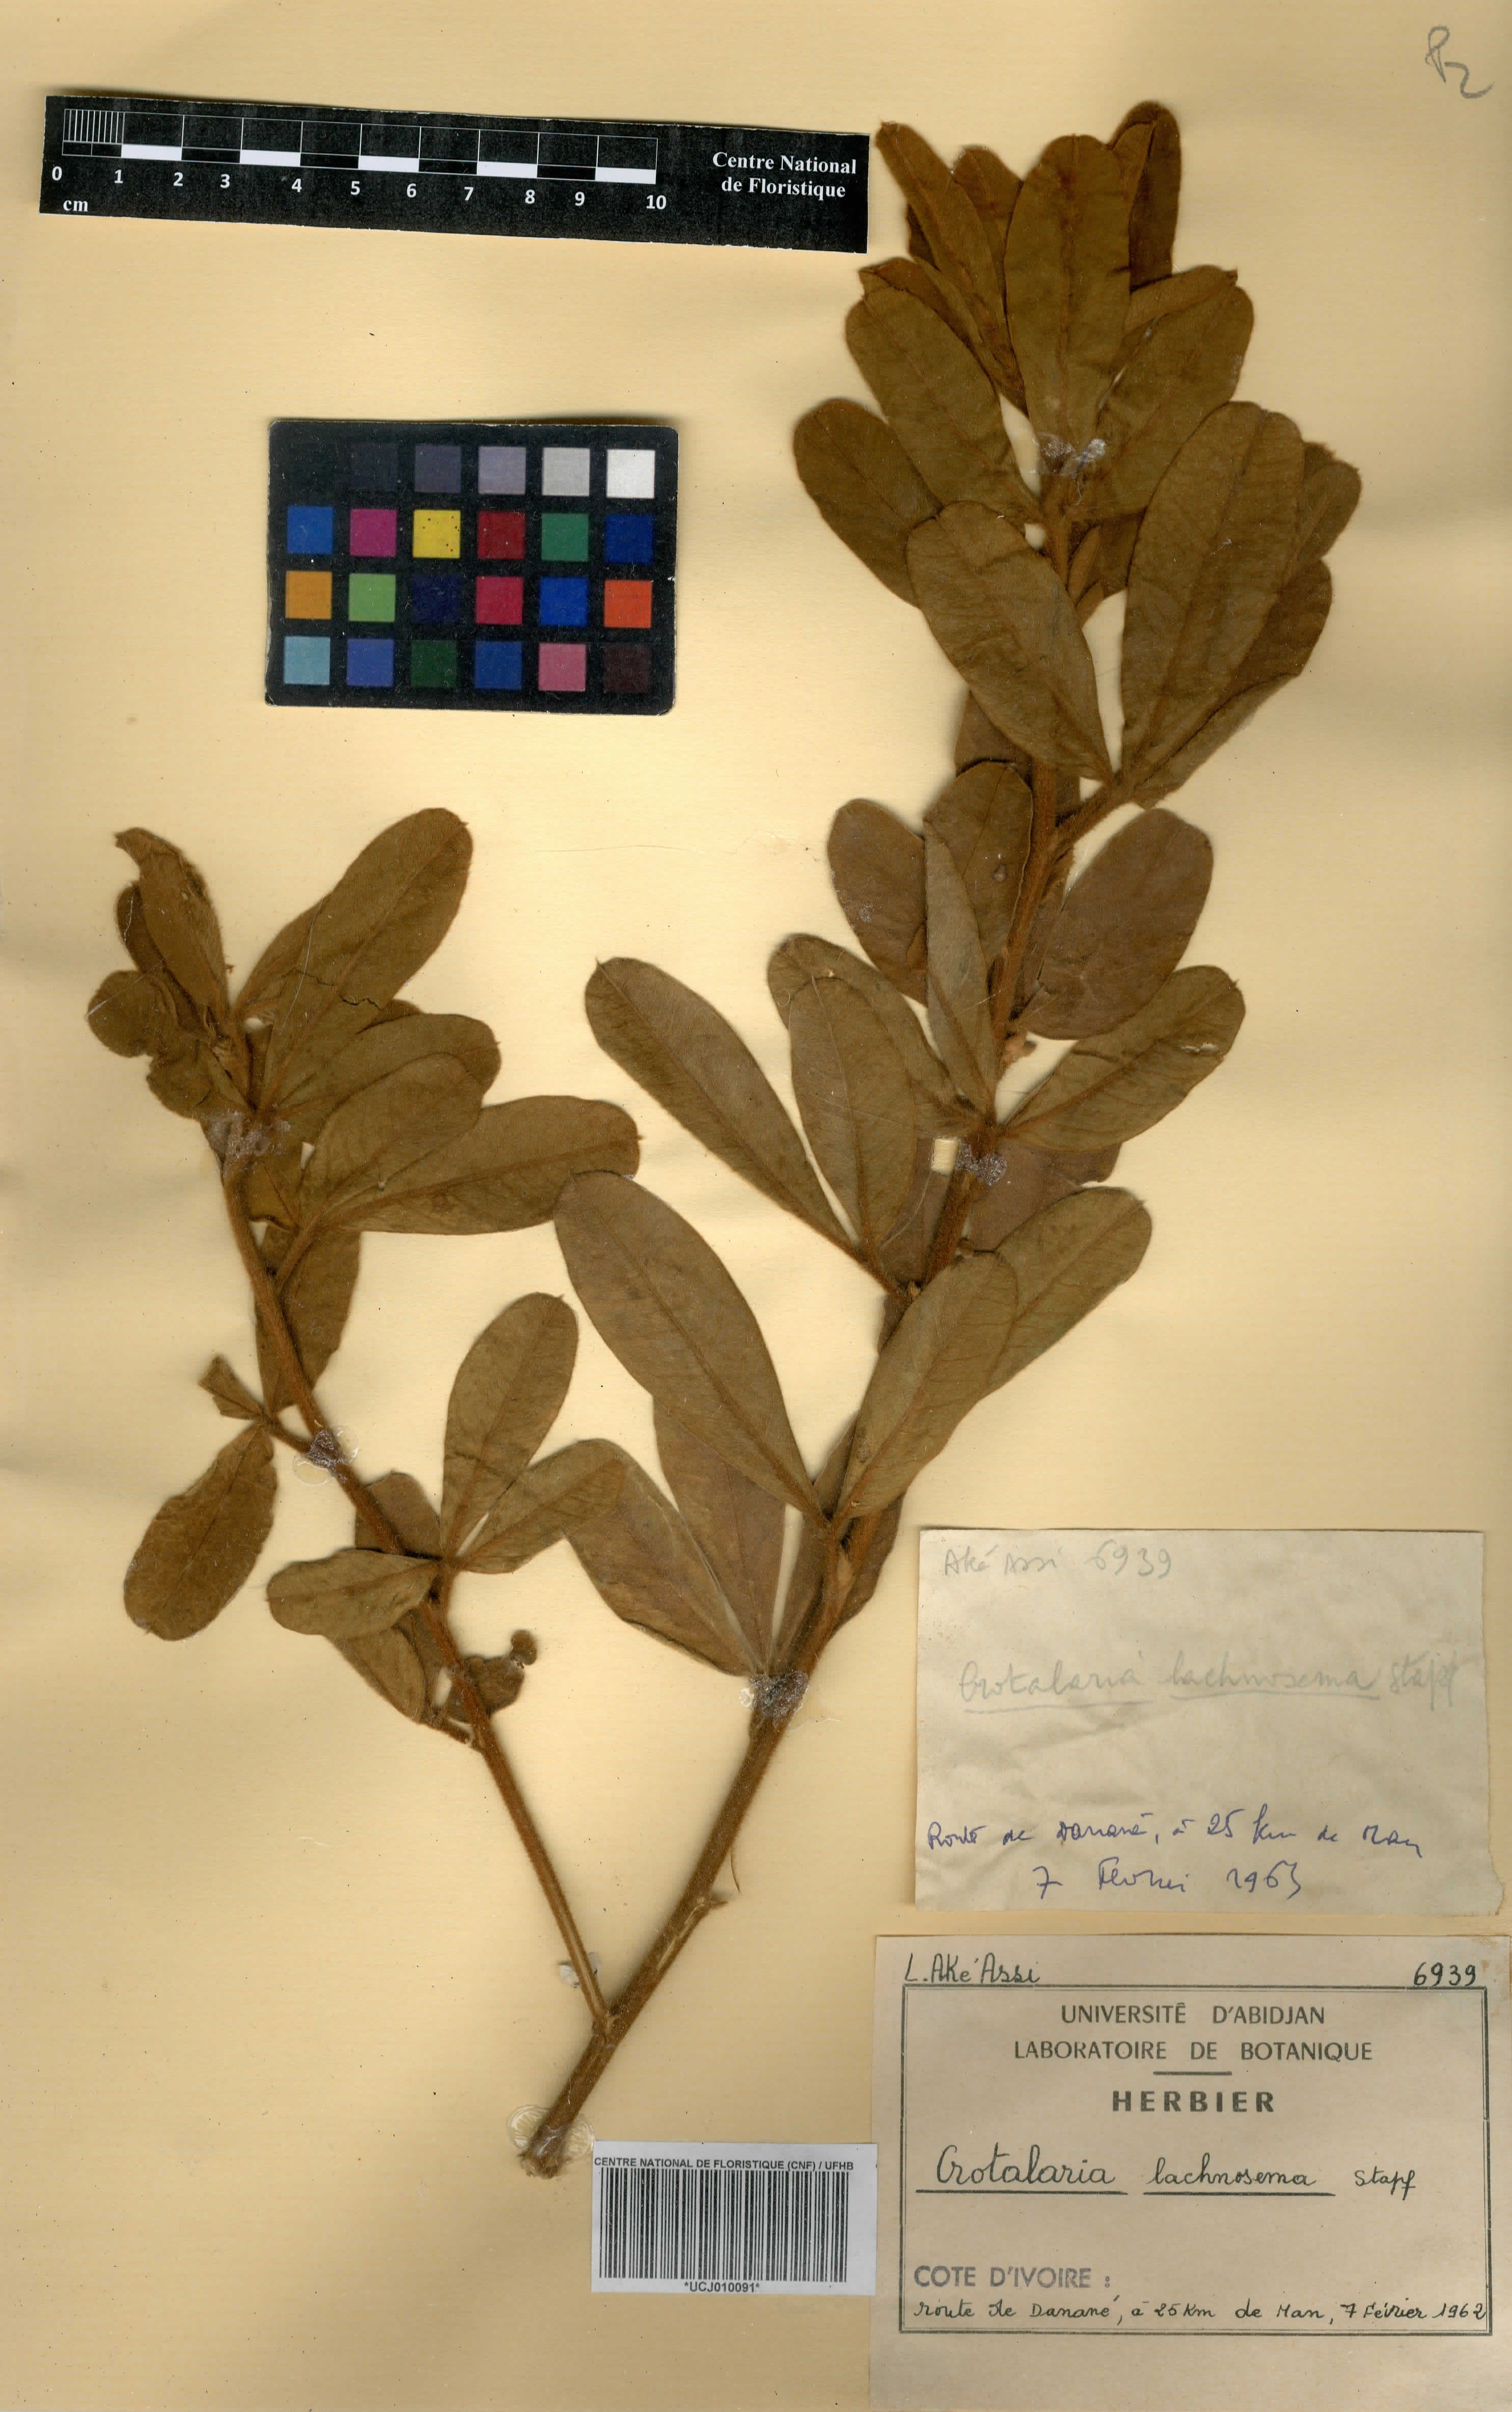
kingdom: Plantae
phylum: Tracheophyta
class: Magnoliopsida
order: Fabales
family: Fabaceae
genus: Crotalaria
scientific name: Crotalaria lachnosema
